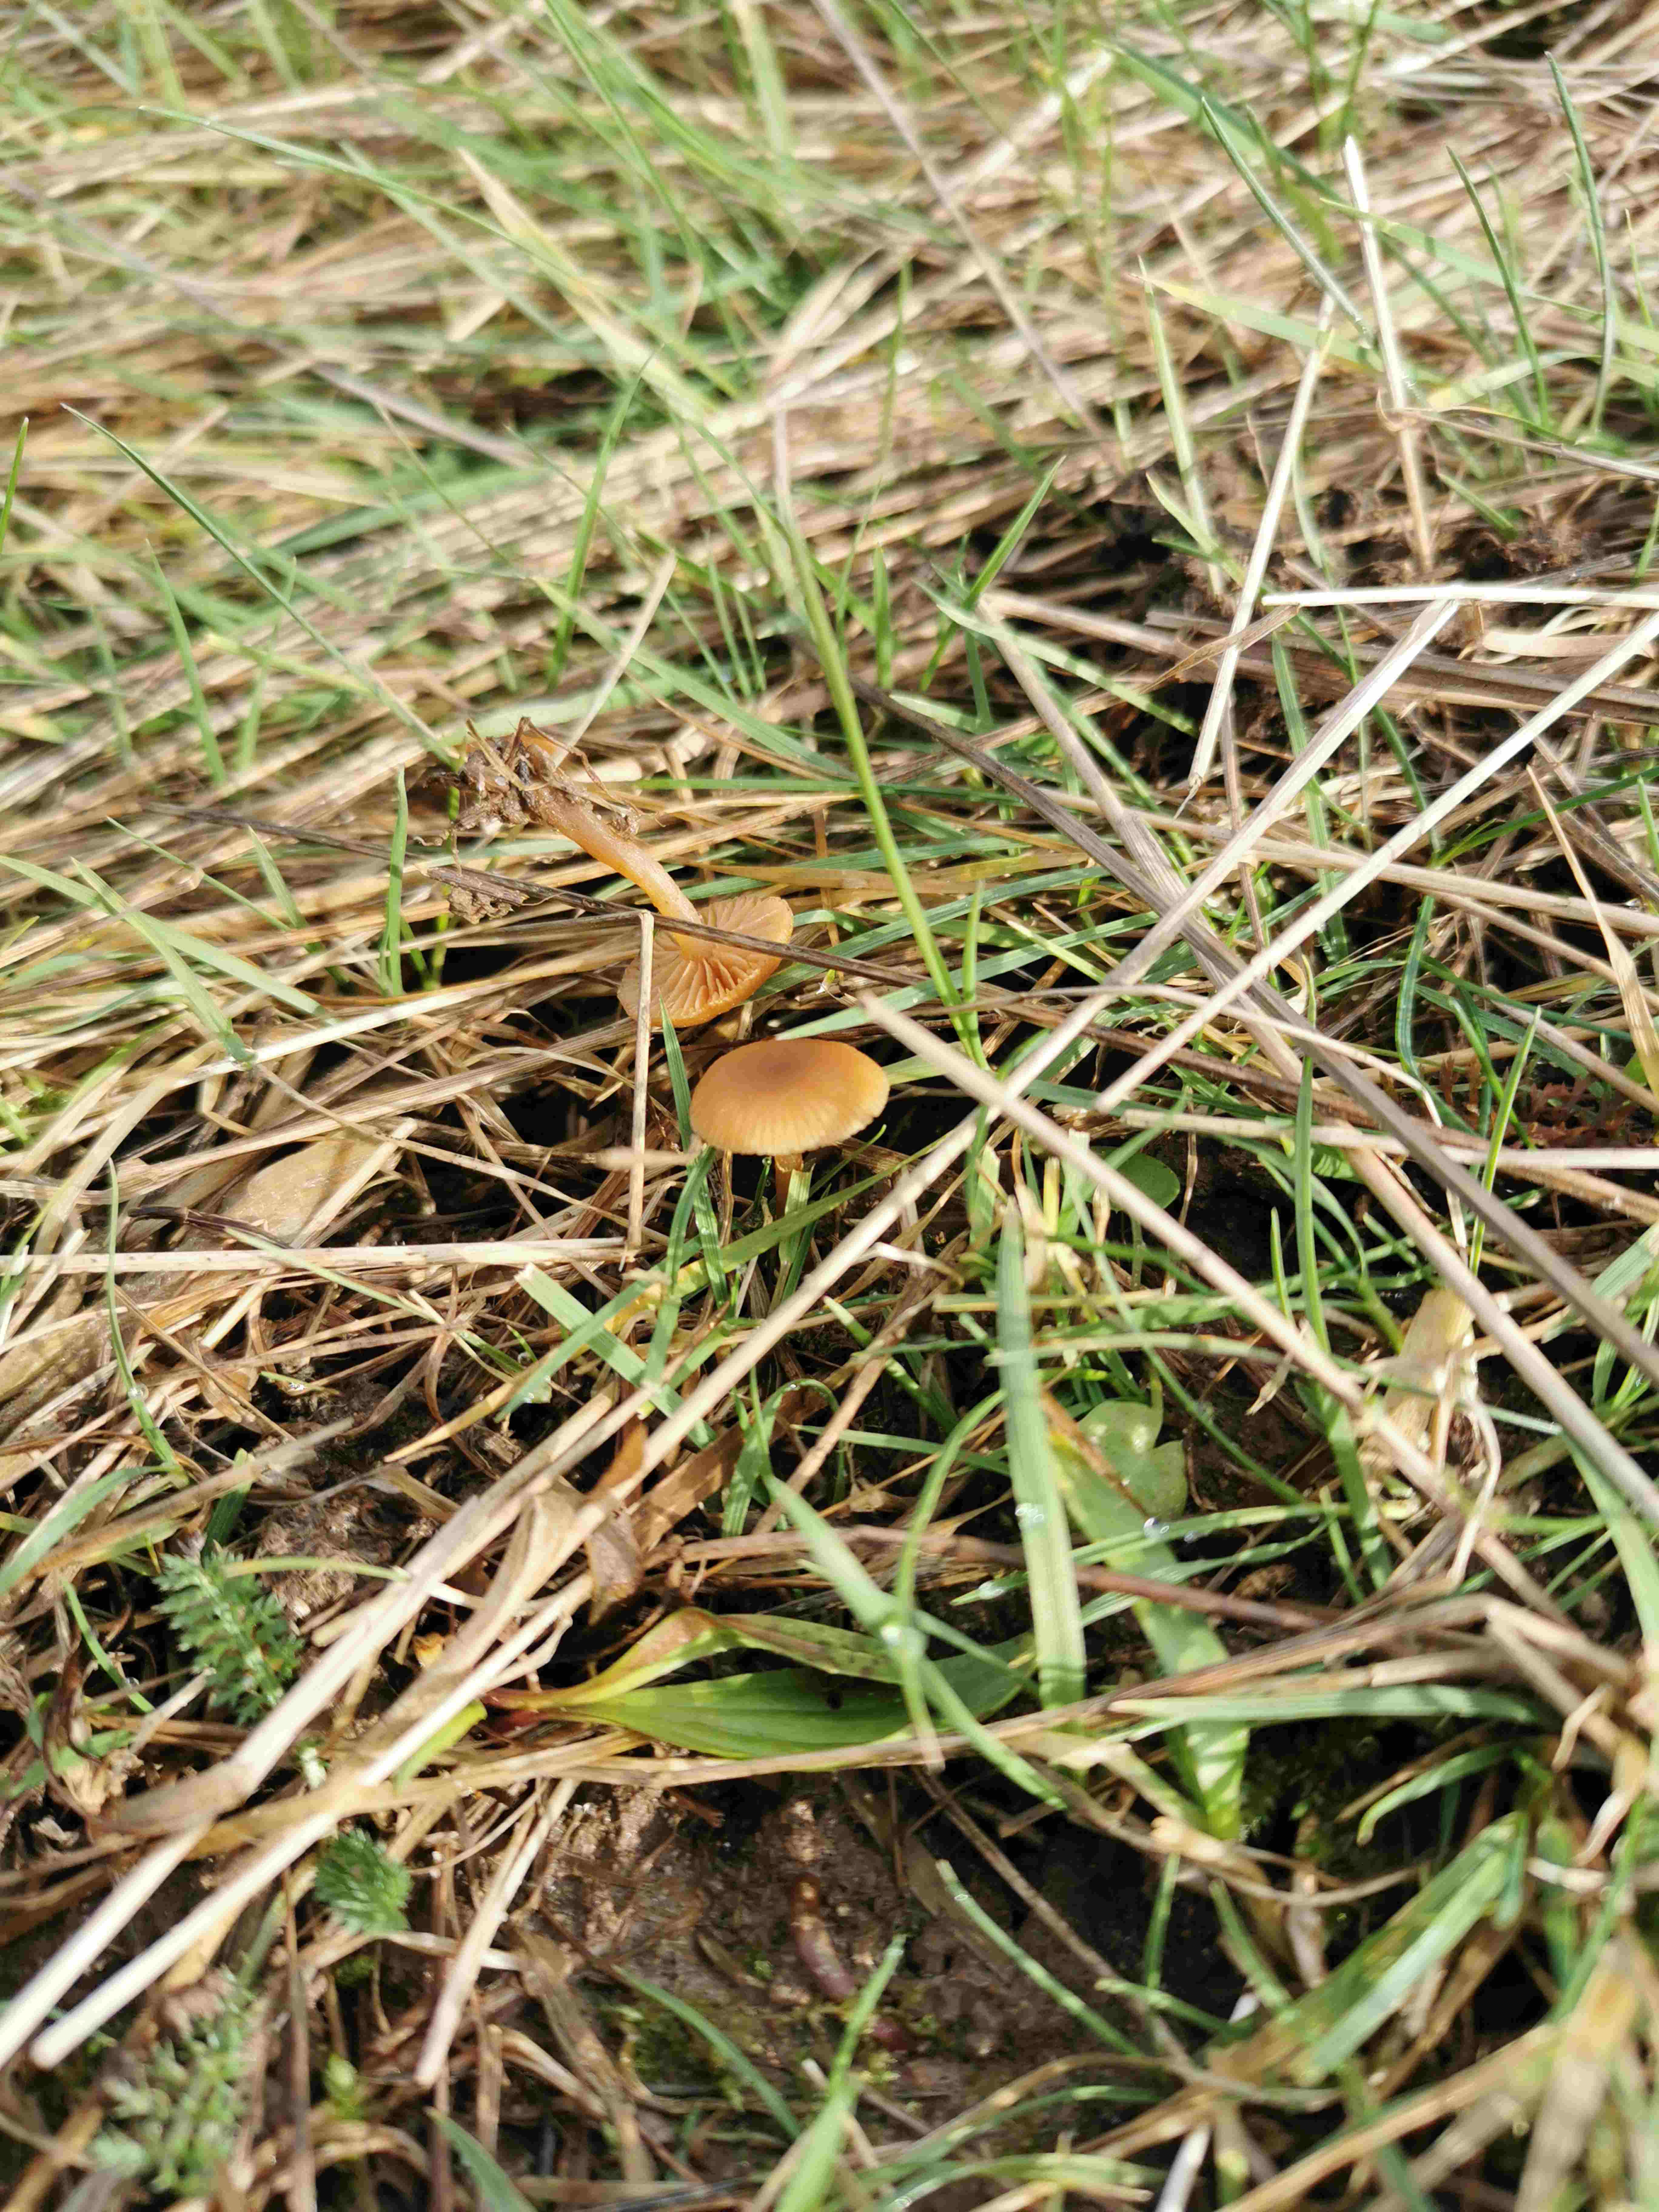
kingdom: Fungi
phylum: Basidiomycota
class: Agaricomycetes
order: Agaricales
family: Hymenogastraceae
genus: Galerina
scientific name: Galerina
